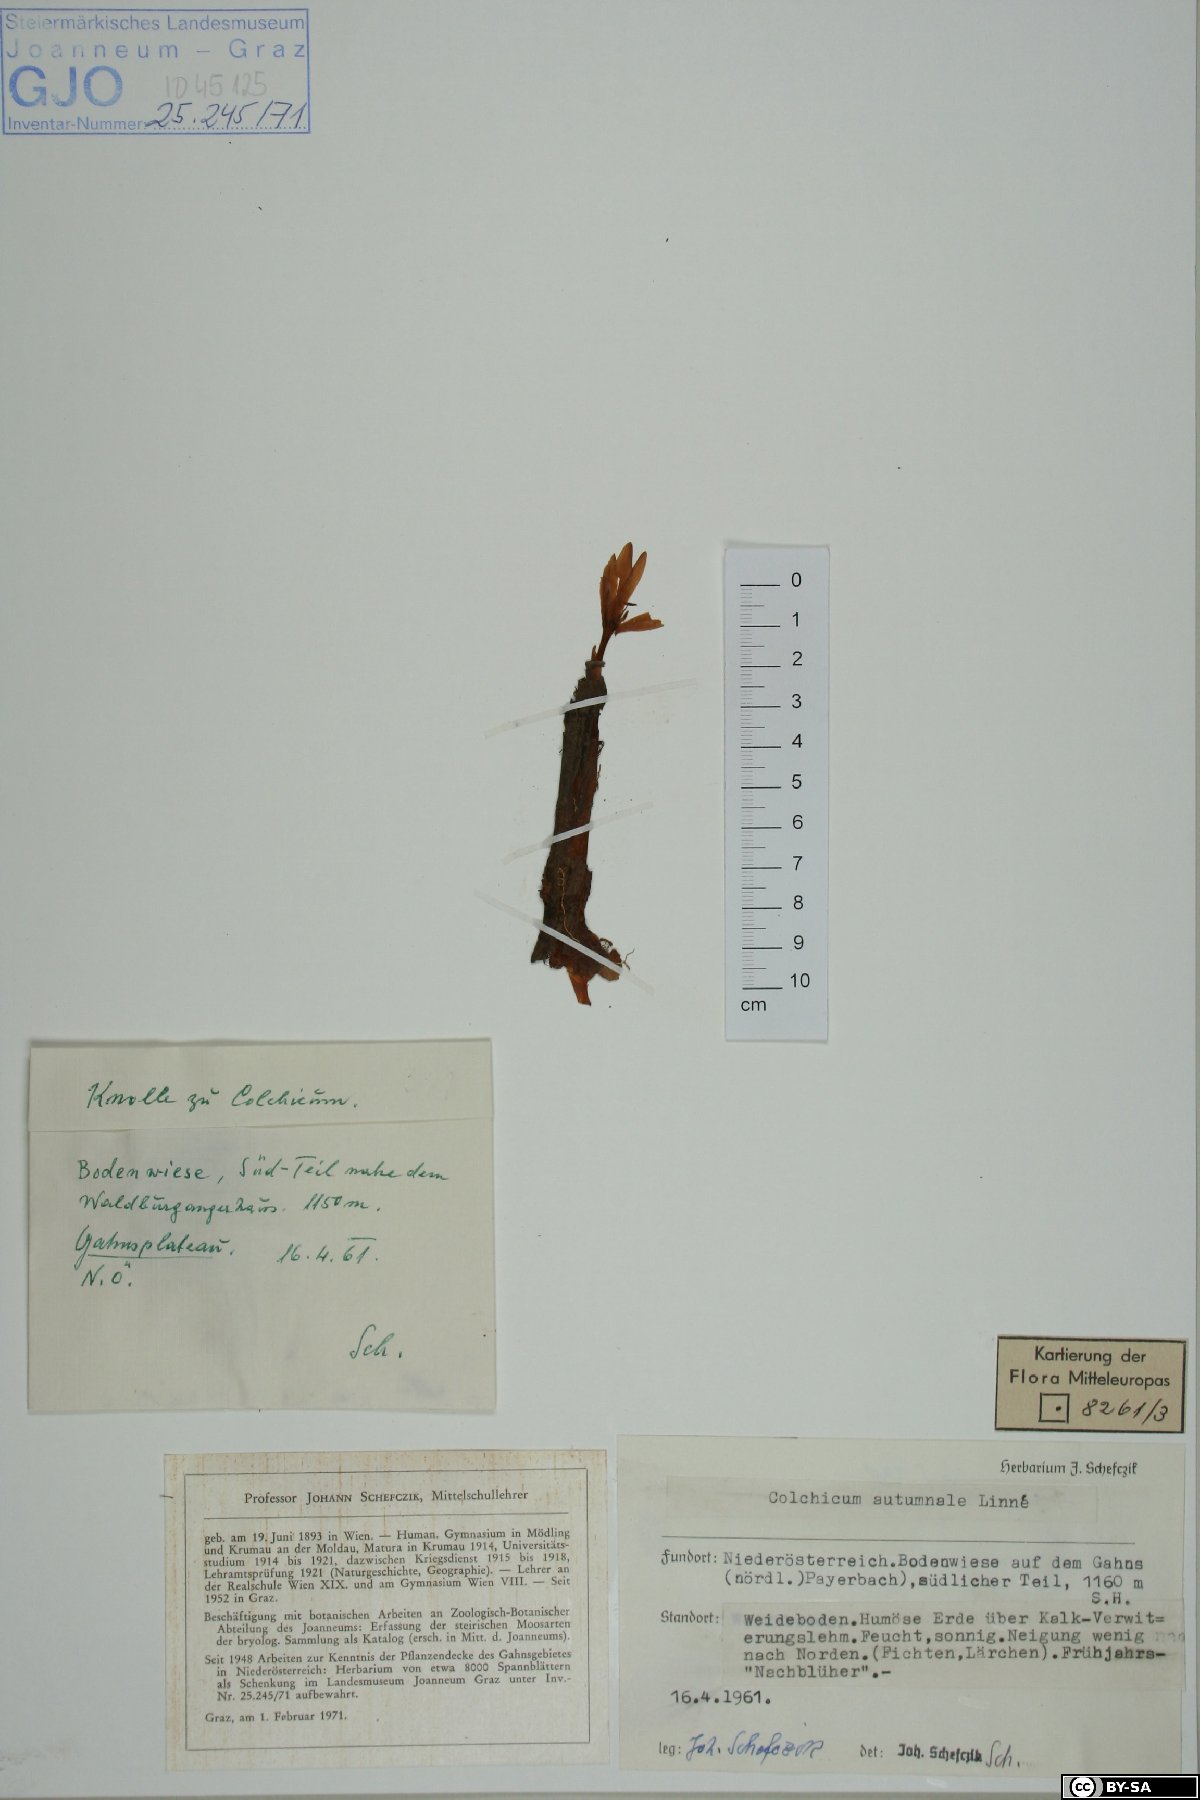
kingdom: Plantae
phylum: Tracheophyta
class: Liliopsida
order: Liliales
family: Colchicaceae
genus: Colchicum
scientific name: Colchicum autumnale
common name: Autumn crocus
